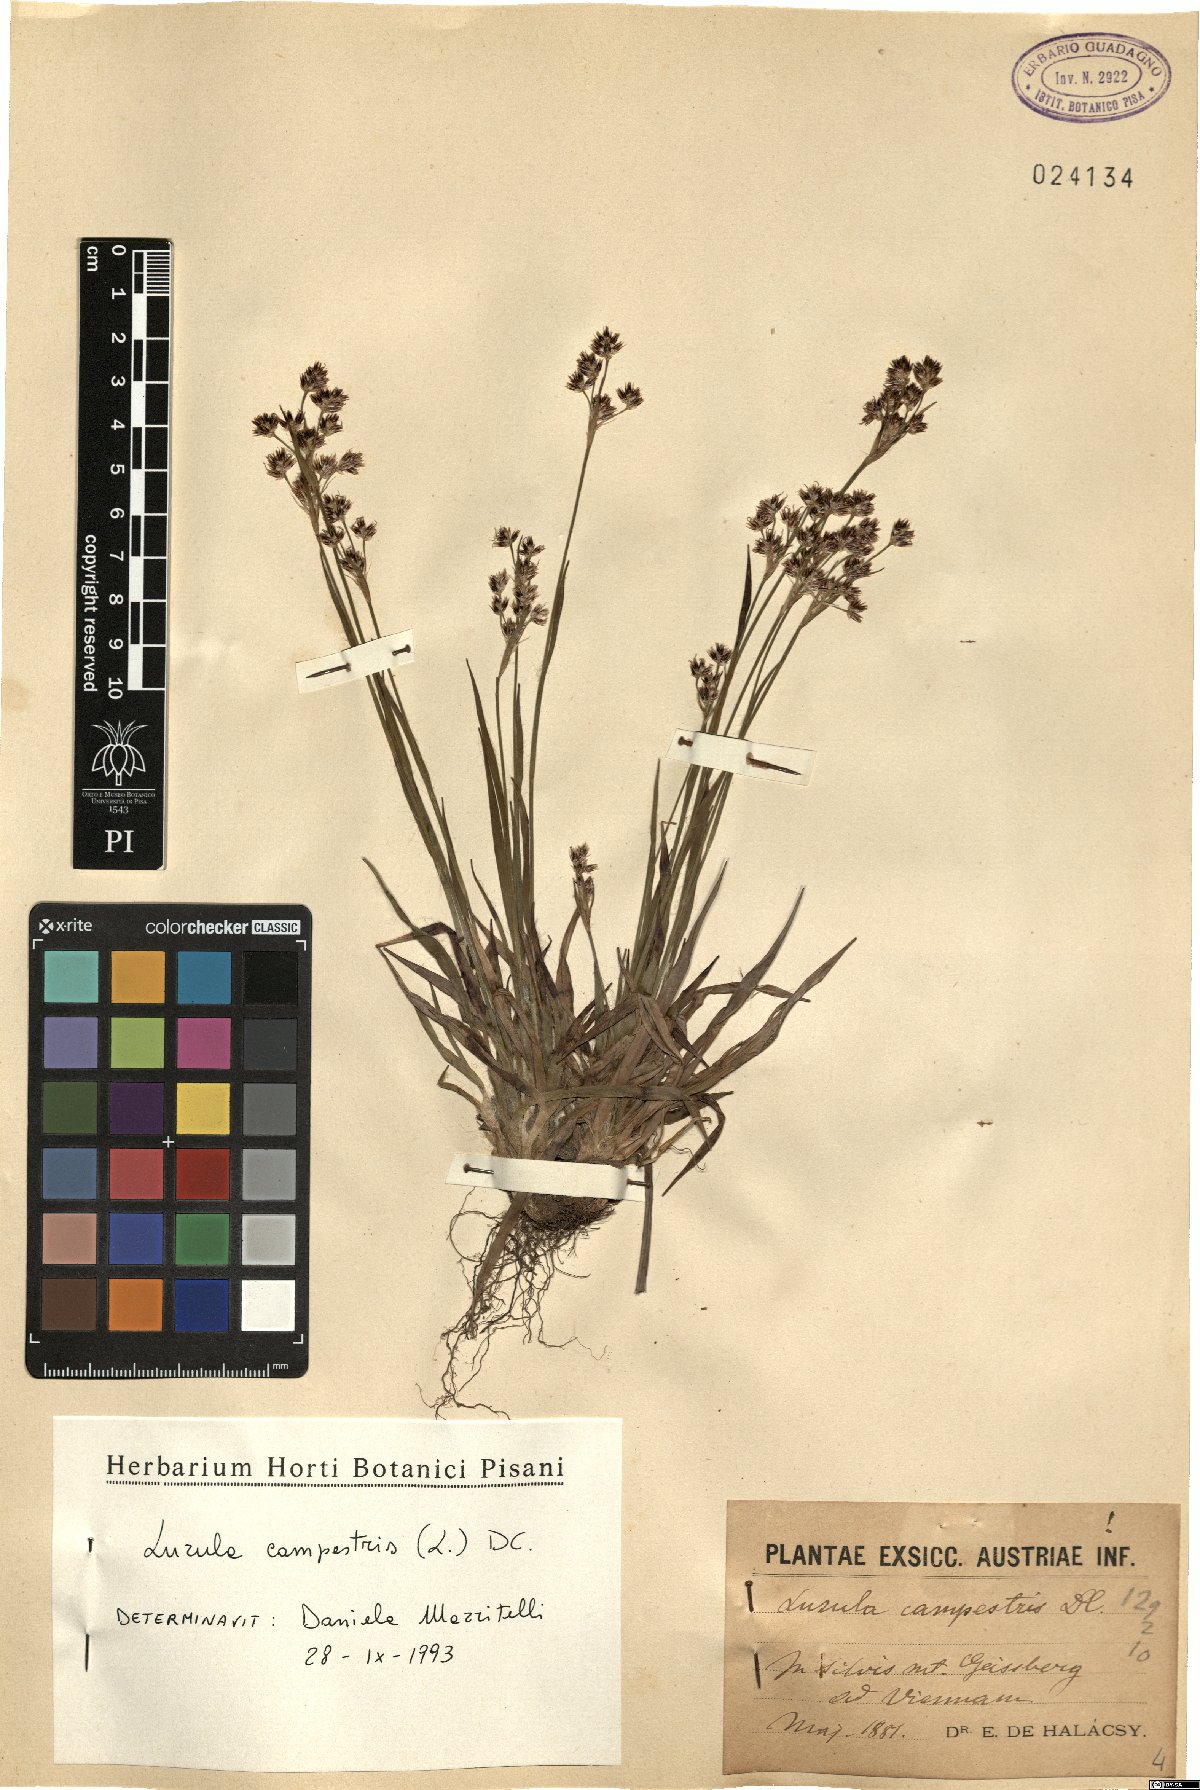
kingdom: Plantae
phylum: Tracheophyta
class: Liliopsida
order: Poales
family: Juncaceae
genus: Luzula
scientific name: Luzula campestris
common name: Field wood-rush
